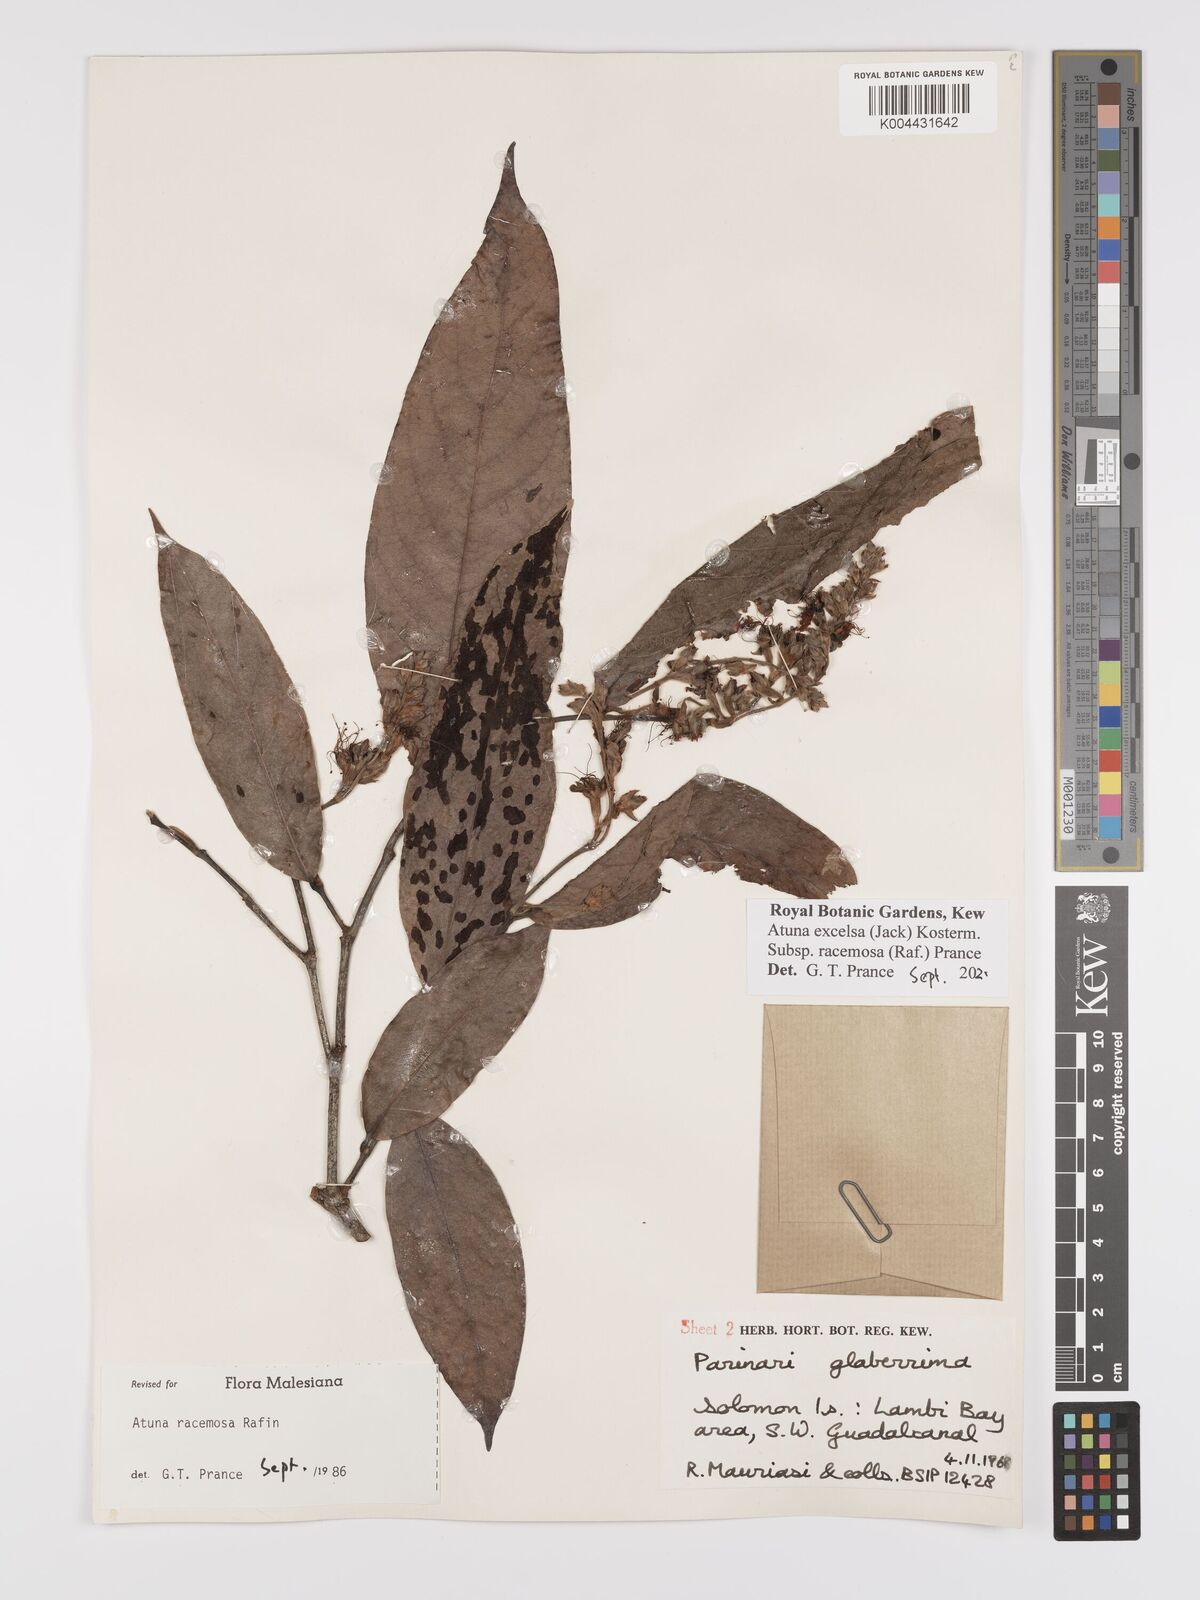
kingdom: Plantae
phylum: Tracheophyta
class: Magnoliopsida
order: Malpighiales
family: Chrysobalanaceae
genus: Atuna
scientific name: Atuna
